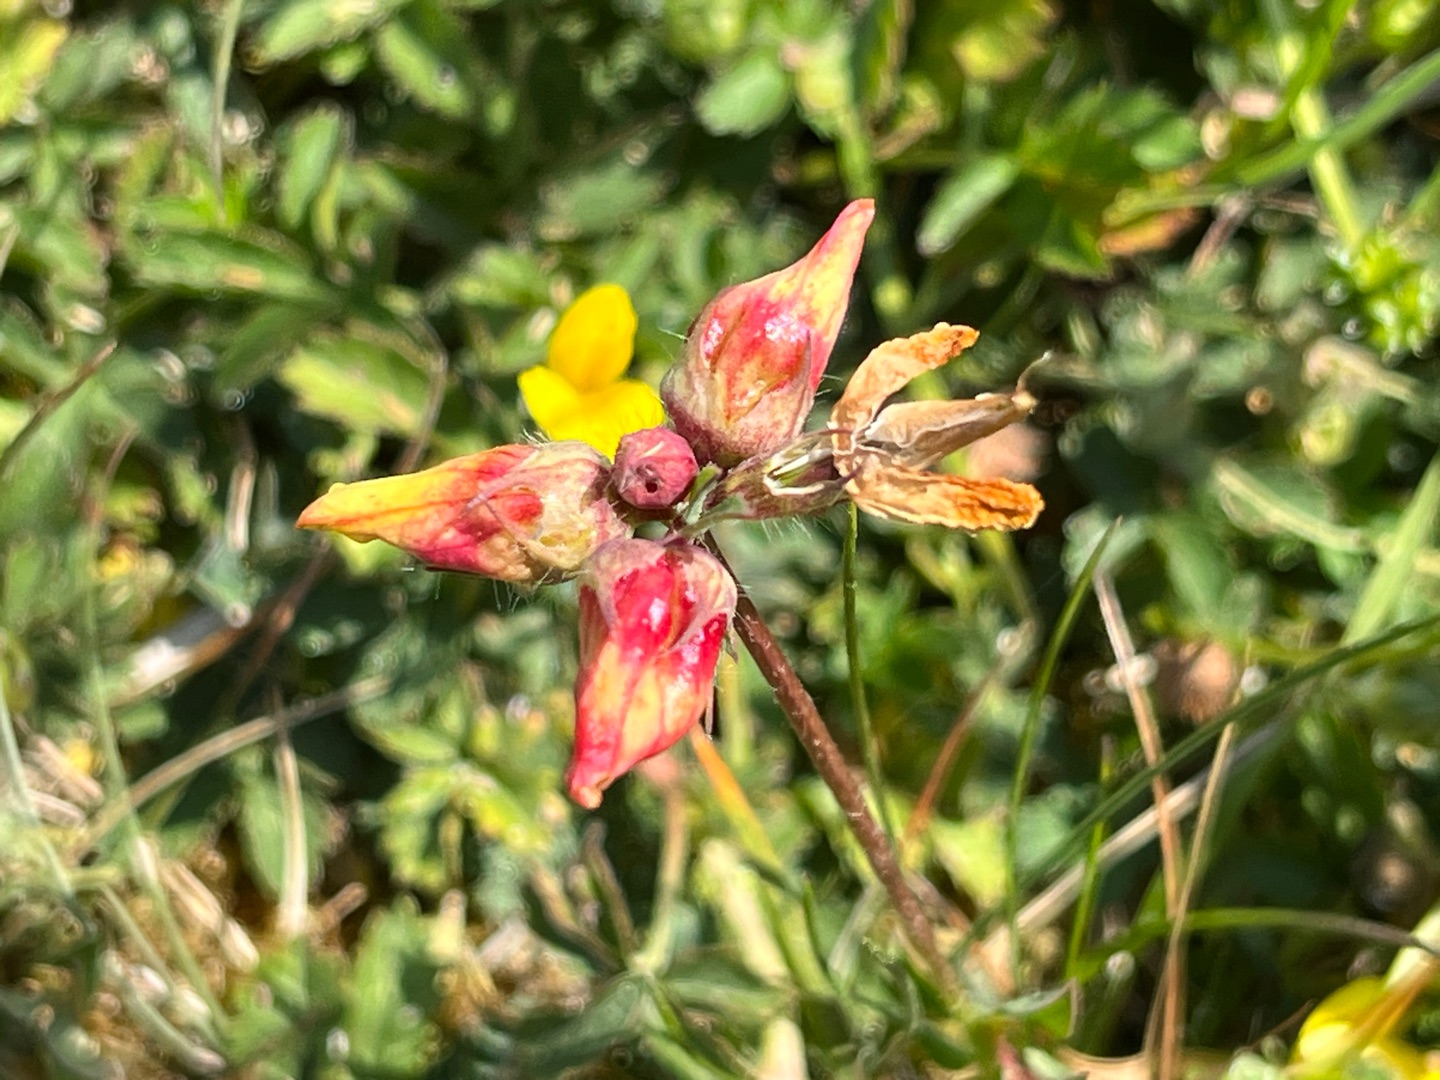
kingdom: Animalia
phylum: Arthropoda
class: Insecta
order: Diptera
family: Cecidomyiidae
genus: Contarinia
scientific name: Contarinia loti
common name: Kællingetandblomstgalmyg
